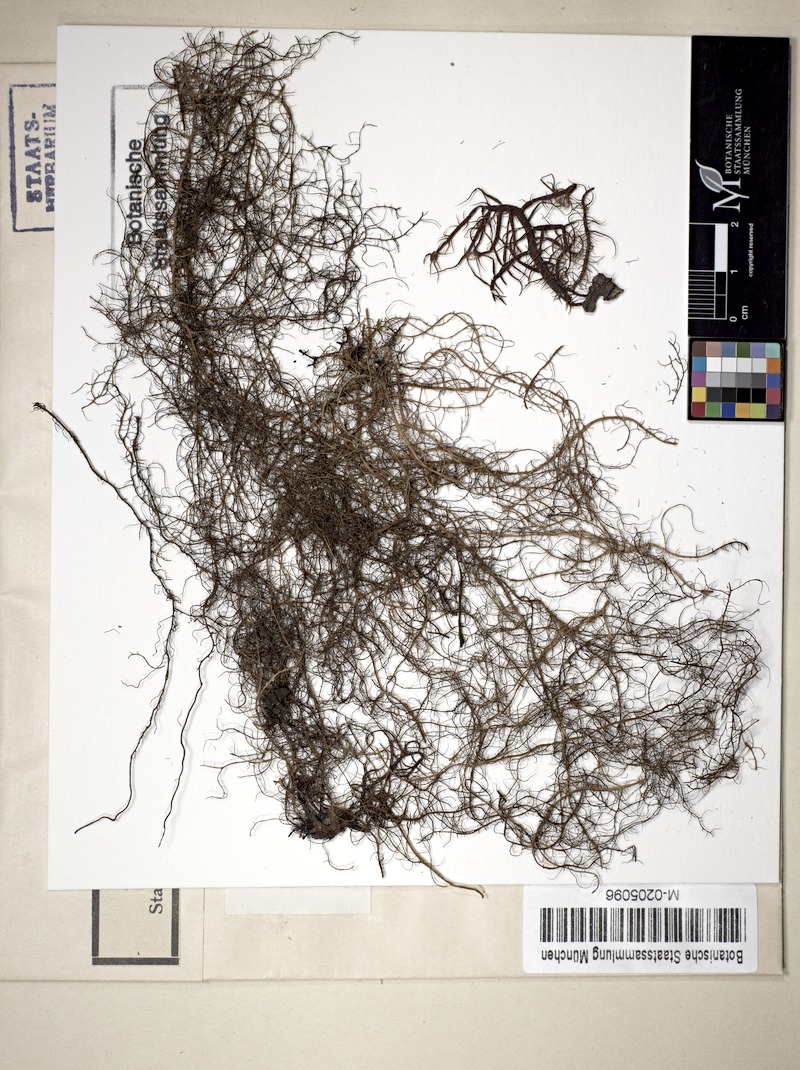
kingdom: Fungi
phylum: Ascomycota
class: Lecanoromycetes
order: Lecanorales
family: Parmeliaceae
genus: Bryoria
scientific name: Bryoria
